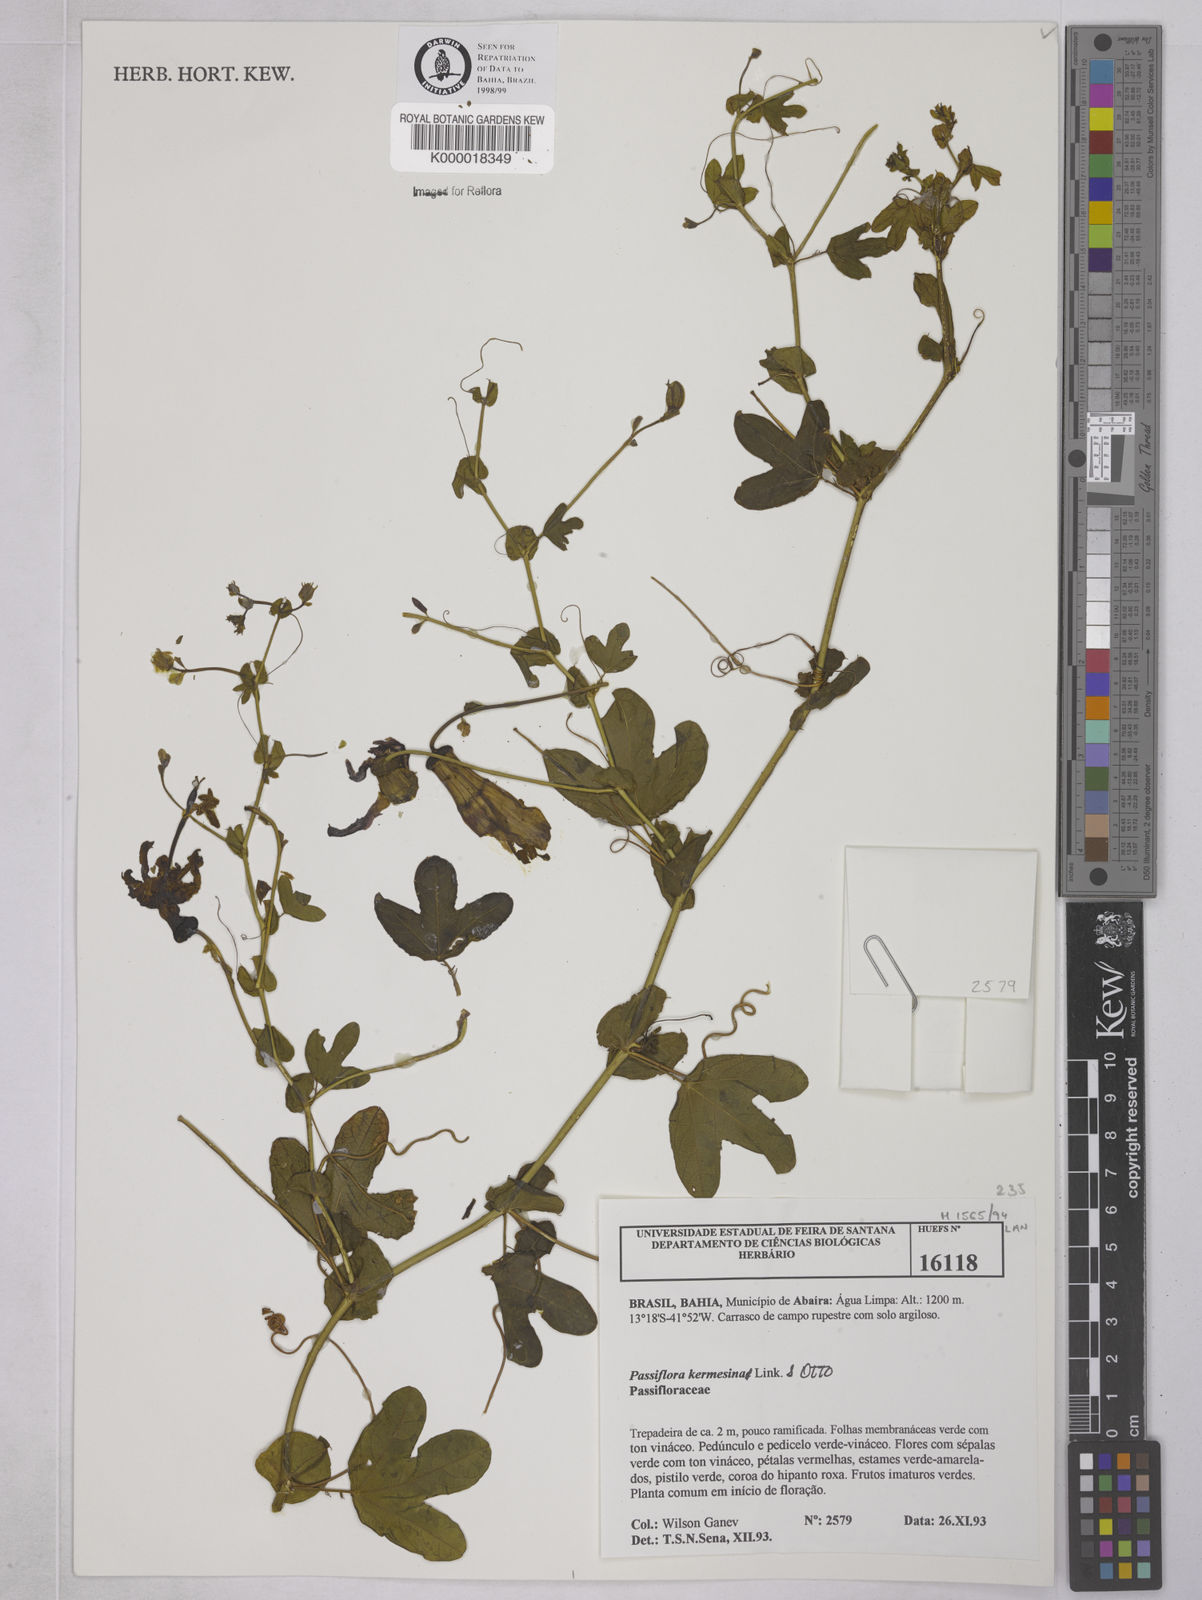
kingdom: Plantae
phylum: Tracheophyta
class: Magnoliopsida
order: Malpighiales
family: Passifloraceae
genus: Passiflora
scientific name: Passiflora kermesina
